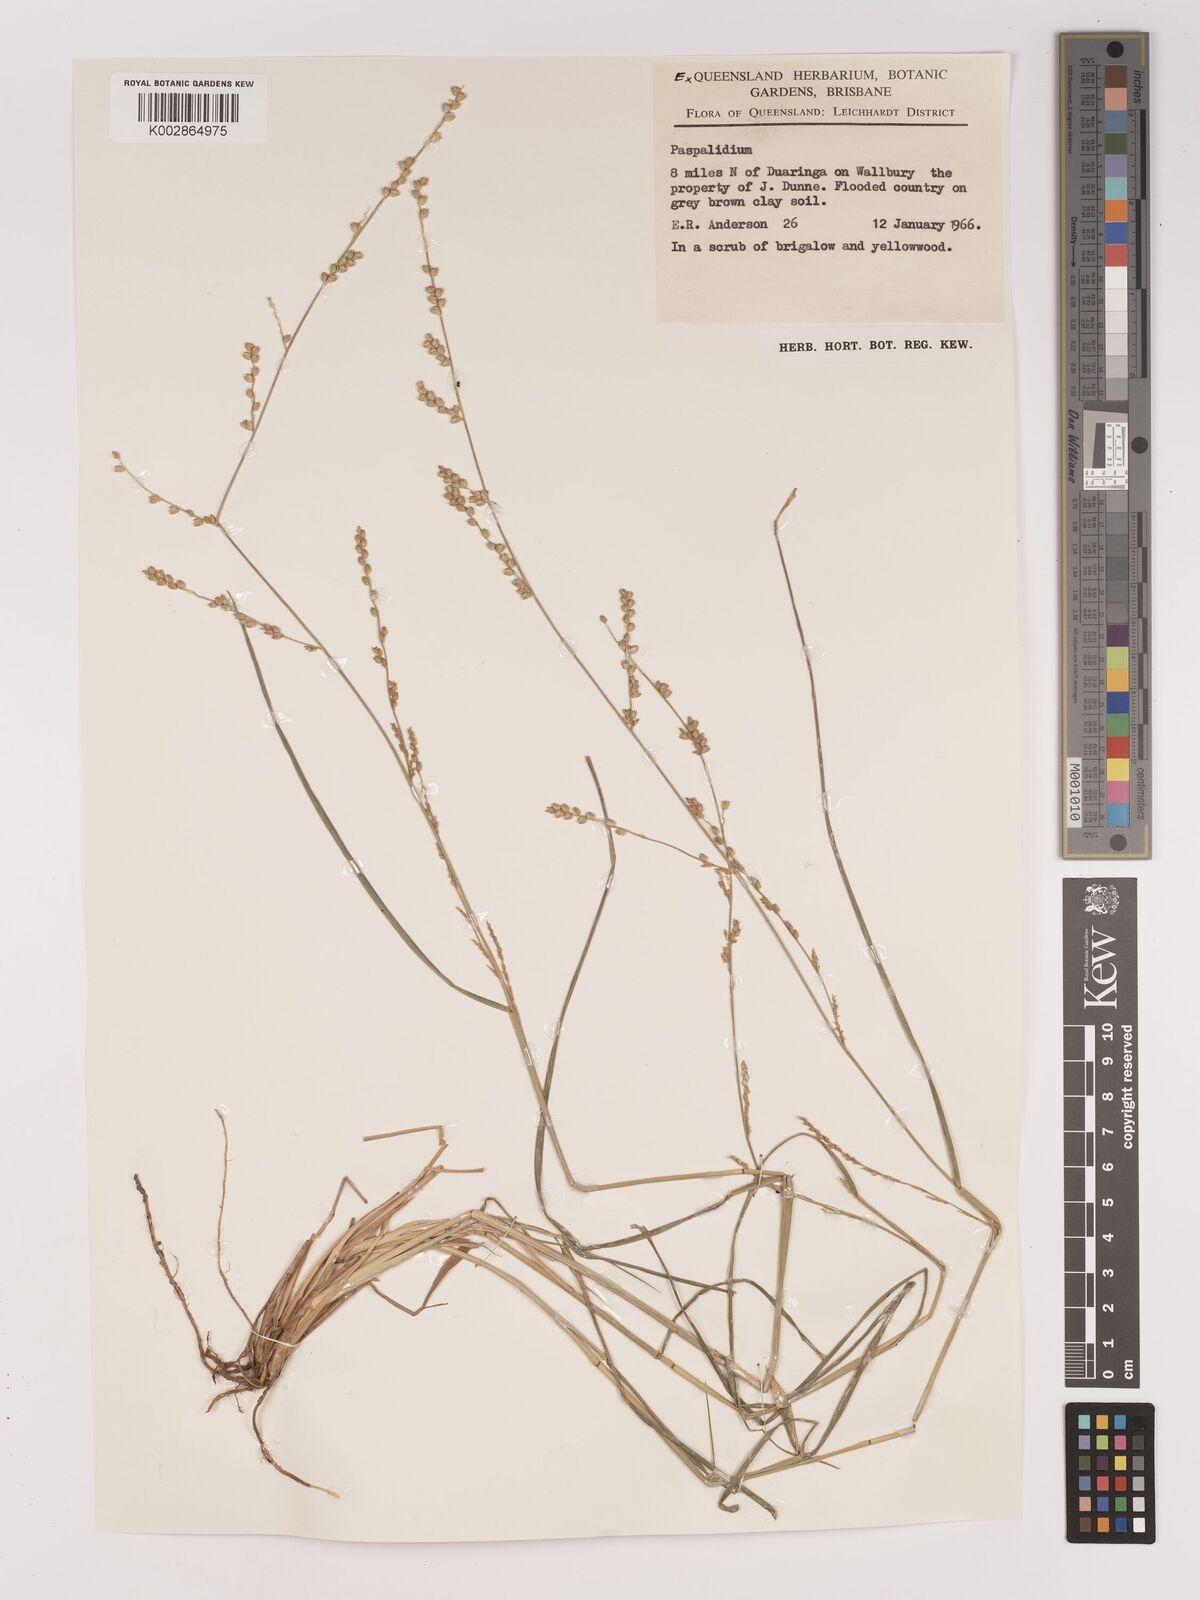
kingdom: Plantae
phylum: Tracheophyta
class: Liliopsida
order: Poales
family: Poaceae
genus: Setaria
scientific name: Setaria
